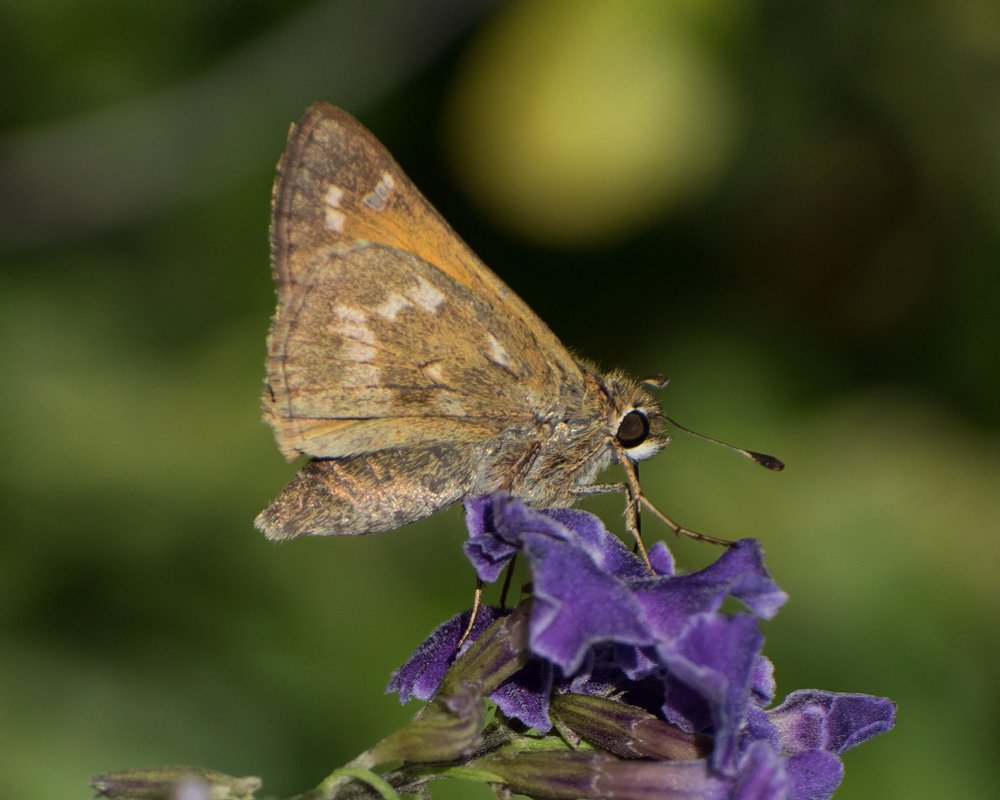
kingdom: Animalia
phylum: Arthropoda
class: Insecta
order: Lepidoptera
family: Hesperiidae
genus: Atalopedes
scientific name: Atalopedes campestris
